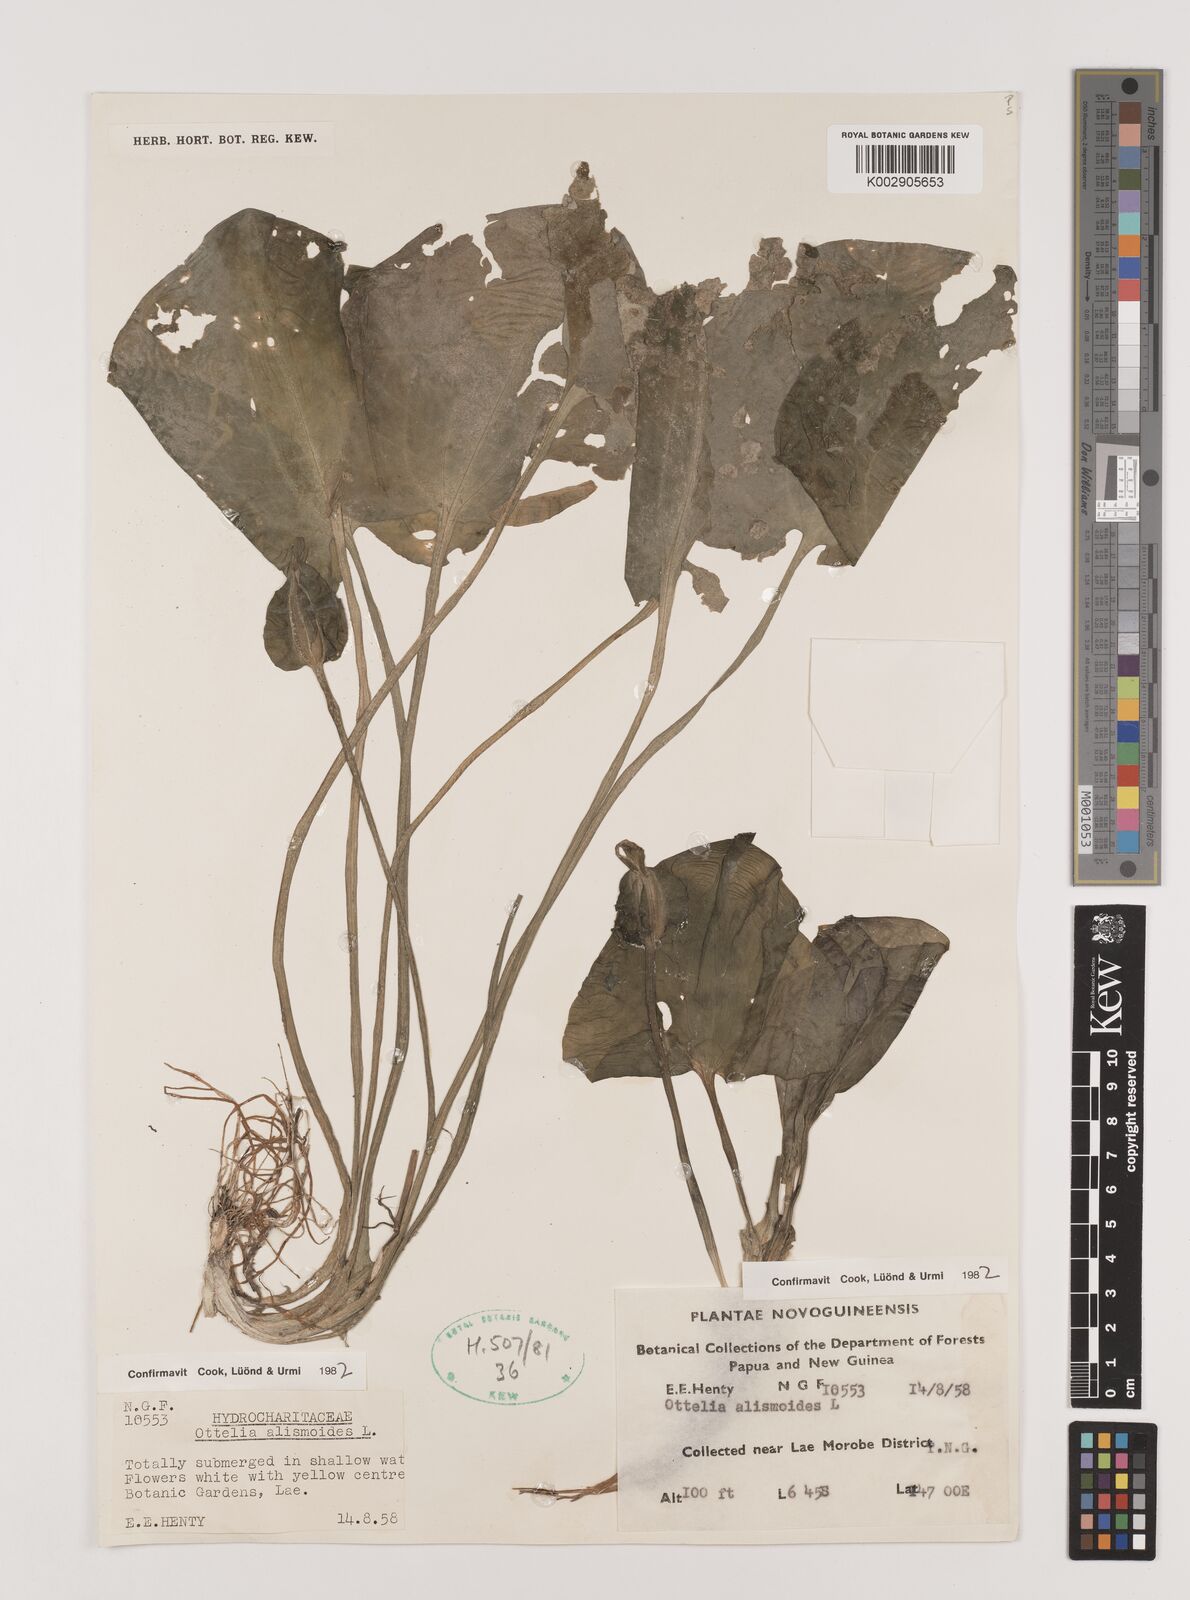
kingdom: Plantae
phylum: Tracheophyta
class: Liliopsida
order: Alismatales
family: Hydrocharitaceae
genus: Ottelia
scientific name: Ottelia alismoides
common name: Duck-lettuce
